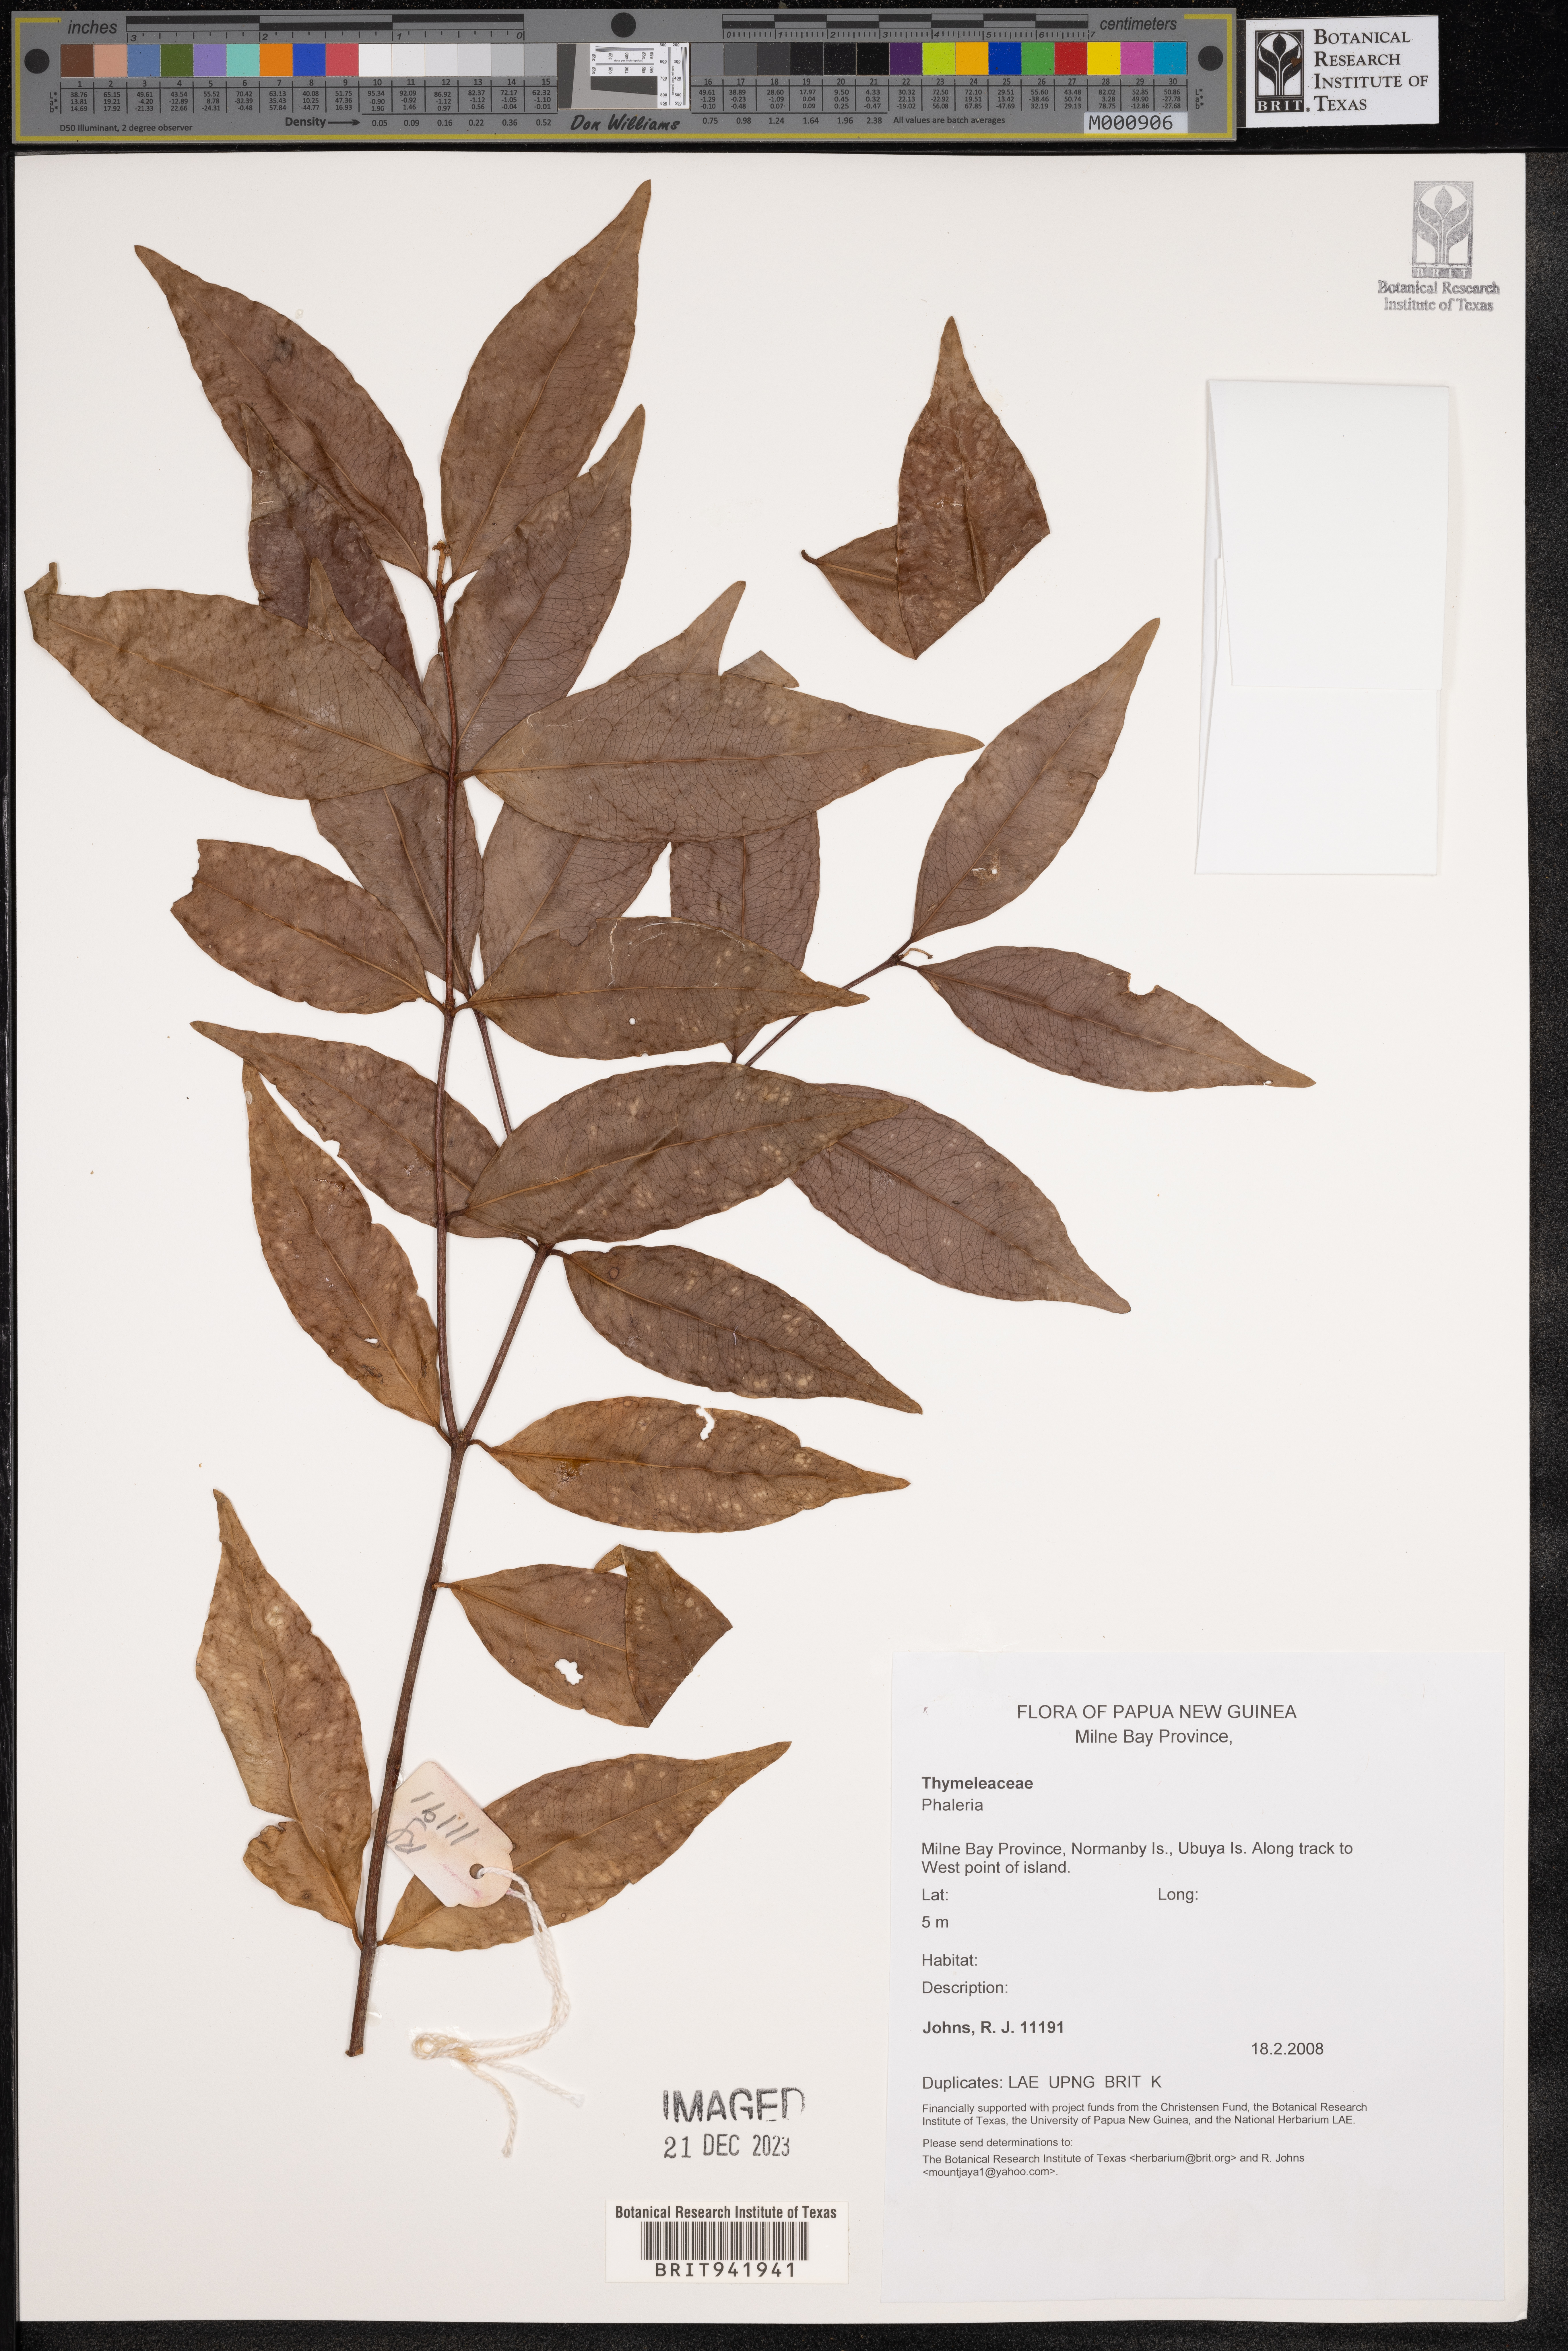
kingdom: Plantae
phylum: Tracheophyta
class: Magnoliopsida
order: Malvales
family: Thymelaeaceae
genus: Phaleria
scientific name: Phaleria
